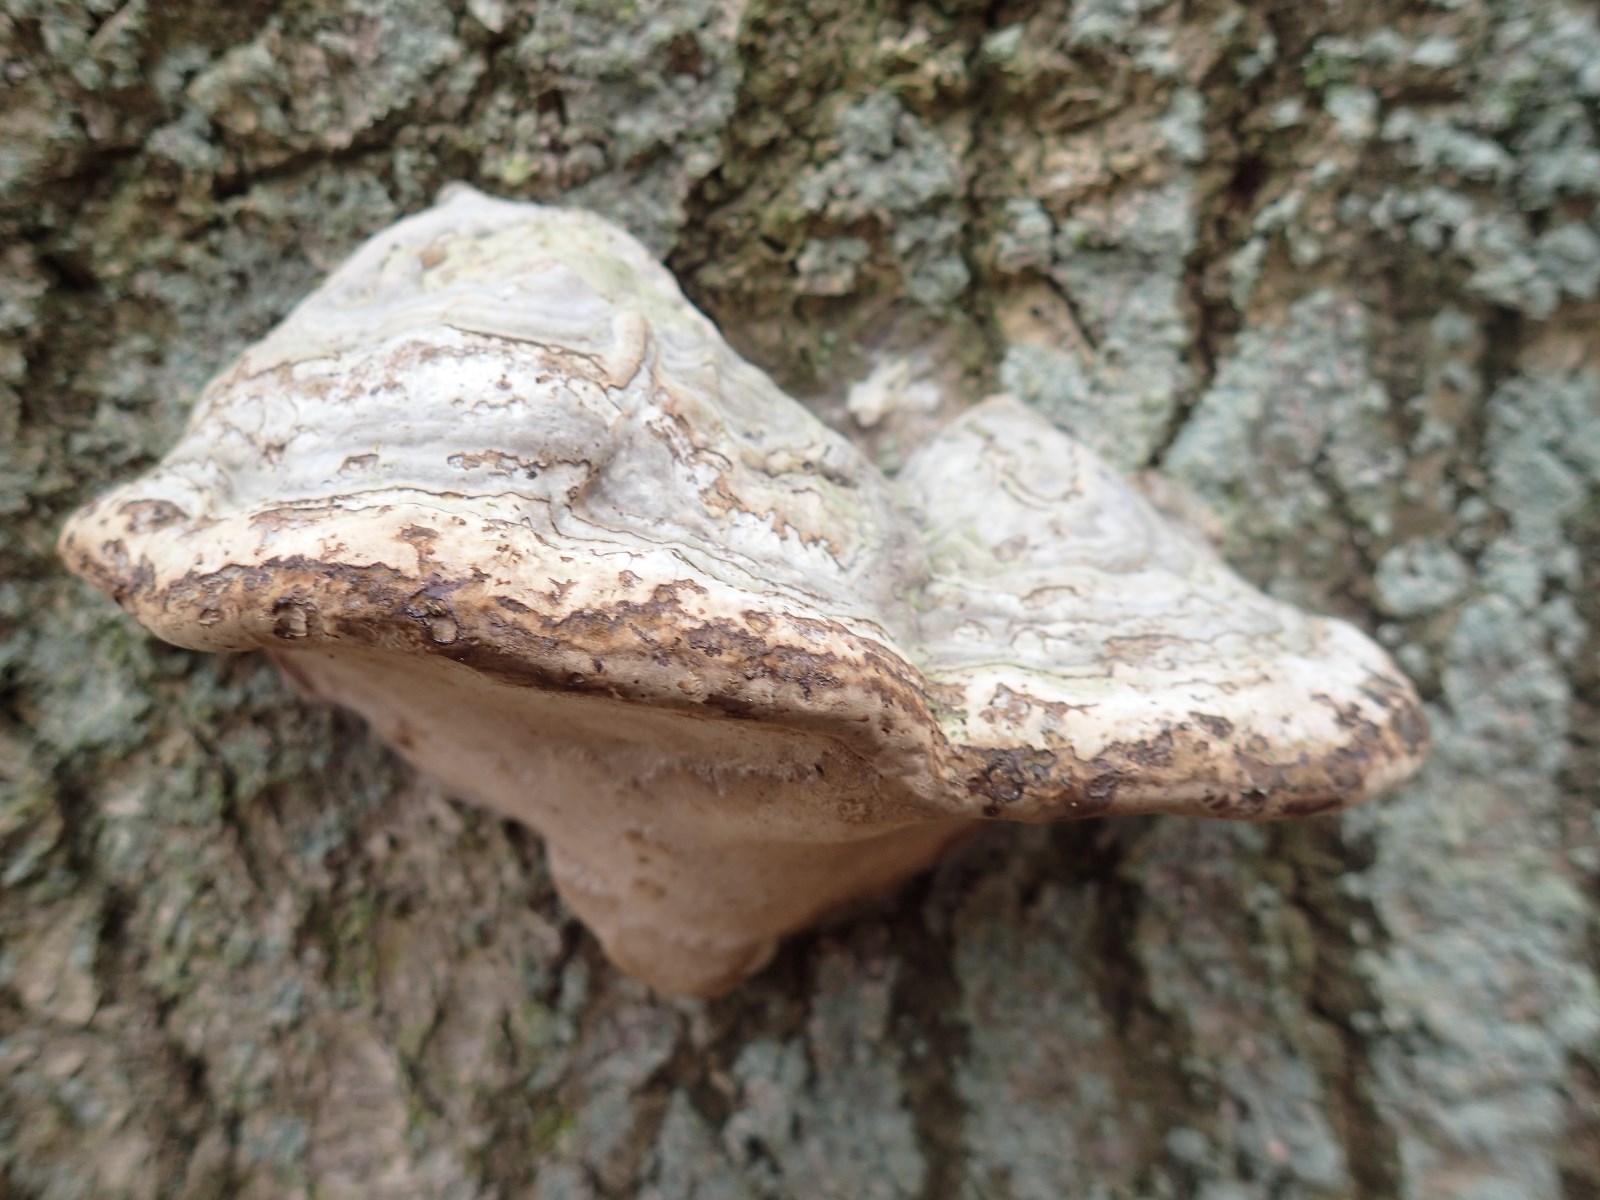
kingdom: Fungi
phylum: Basidiomycota
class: Agaricomycetes
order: Polyporales
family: Polyporaceae
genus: Fomes
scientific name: Fomes fomentarius
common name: tøndersvamp
